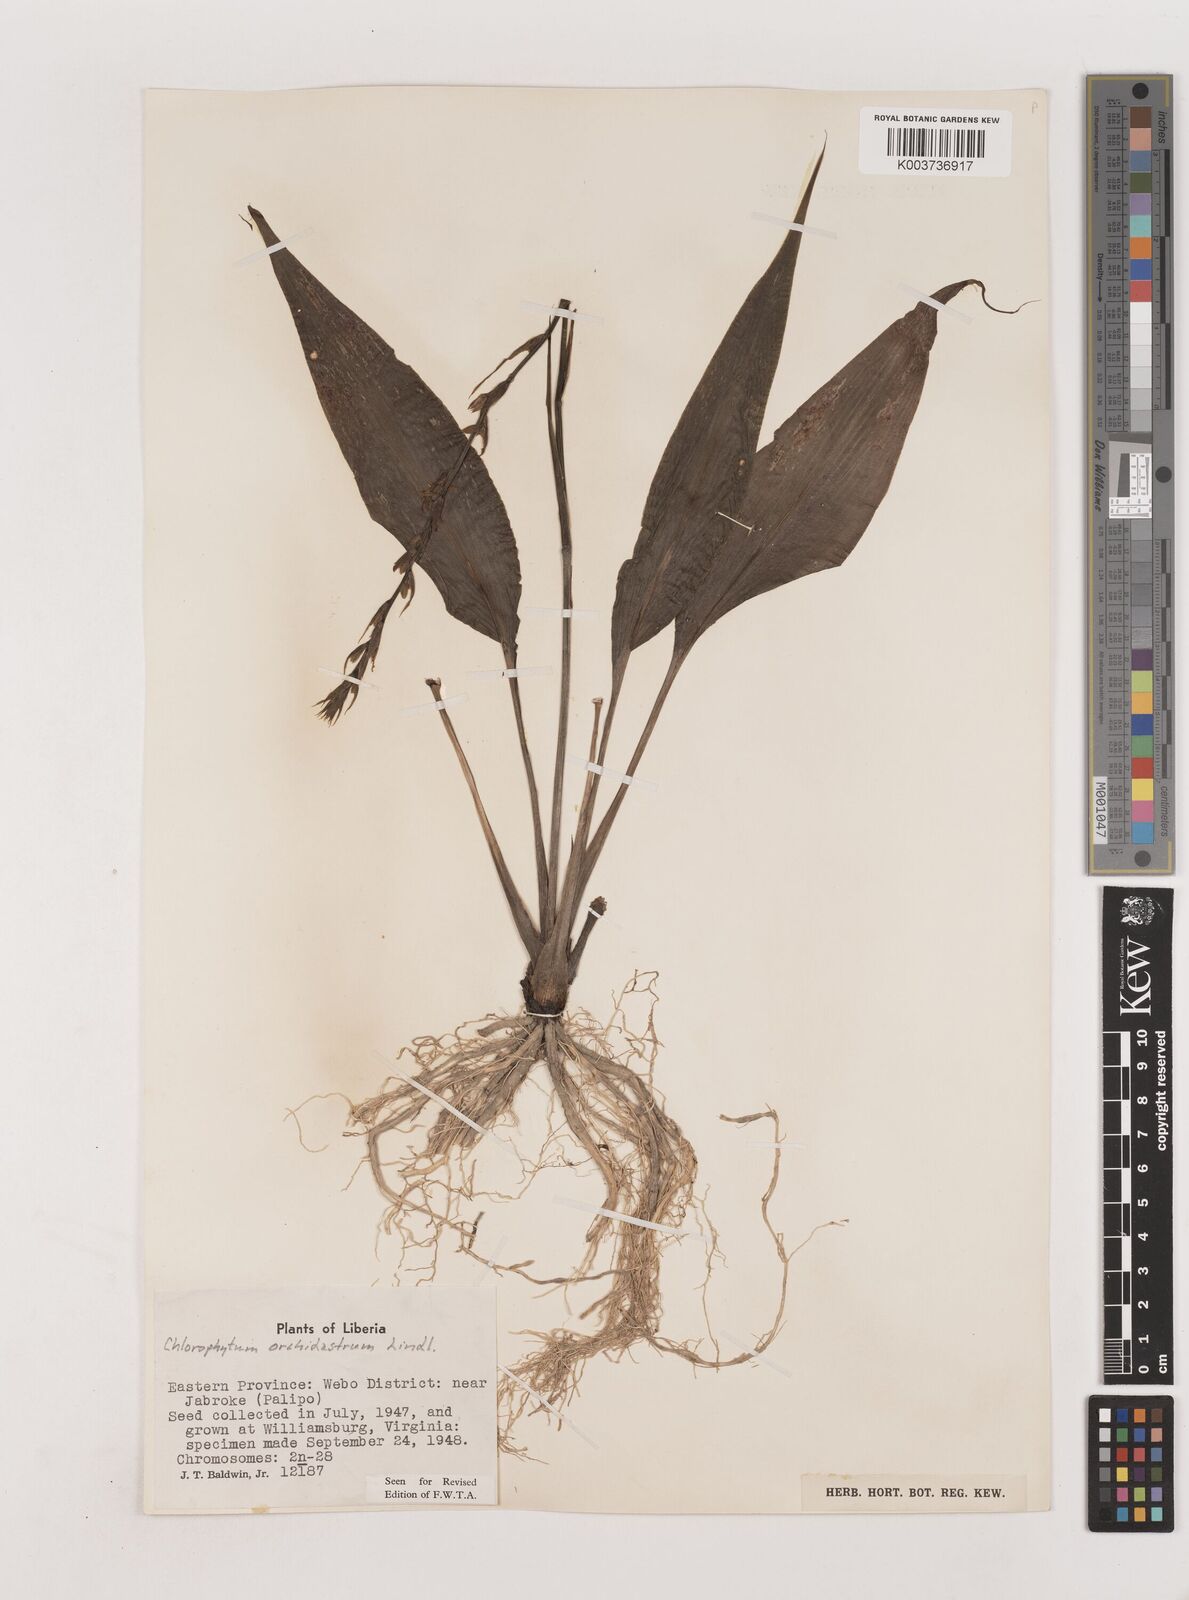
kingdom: Plantae
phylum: Tracheophyta
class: Liliopsida
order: Asparagales
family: Asparagaceae
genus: Chlorophytum
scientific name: Chlorophytum orchidastrum
